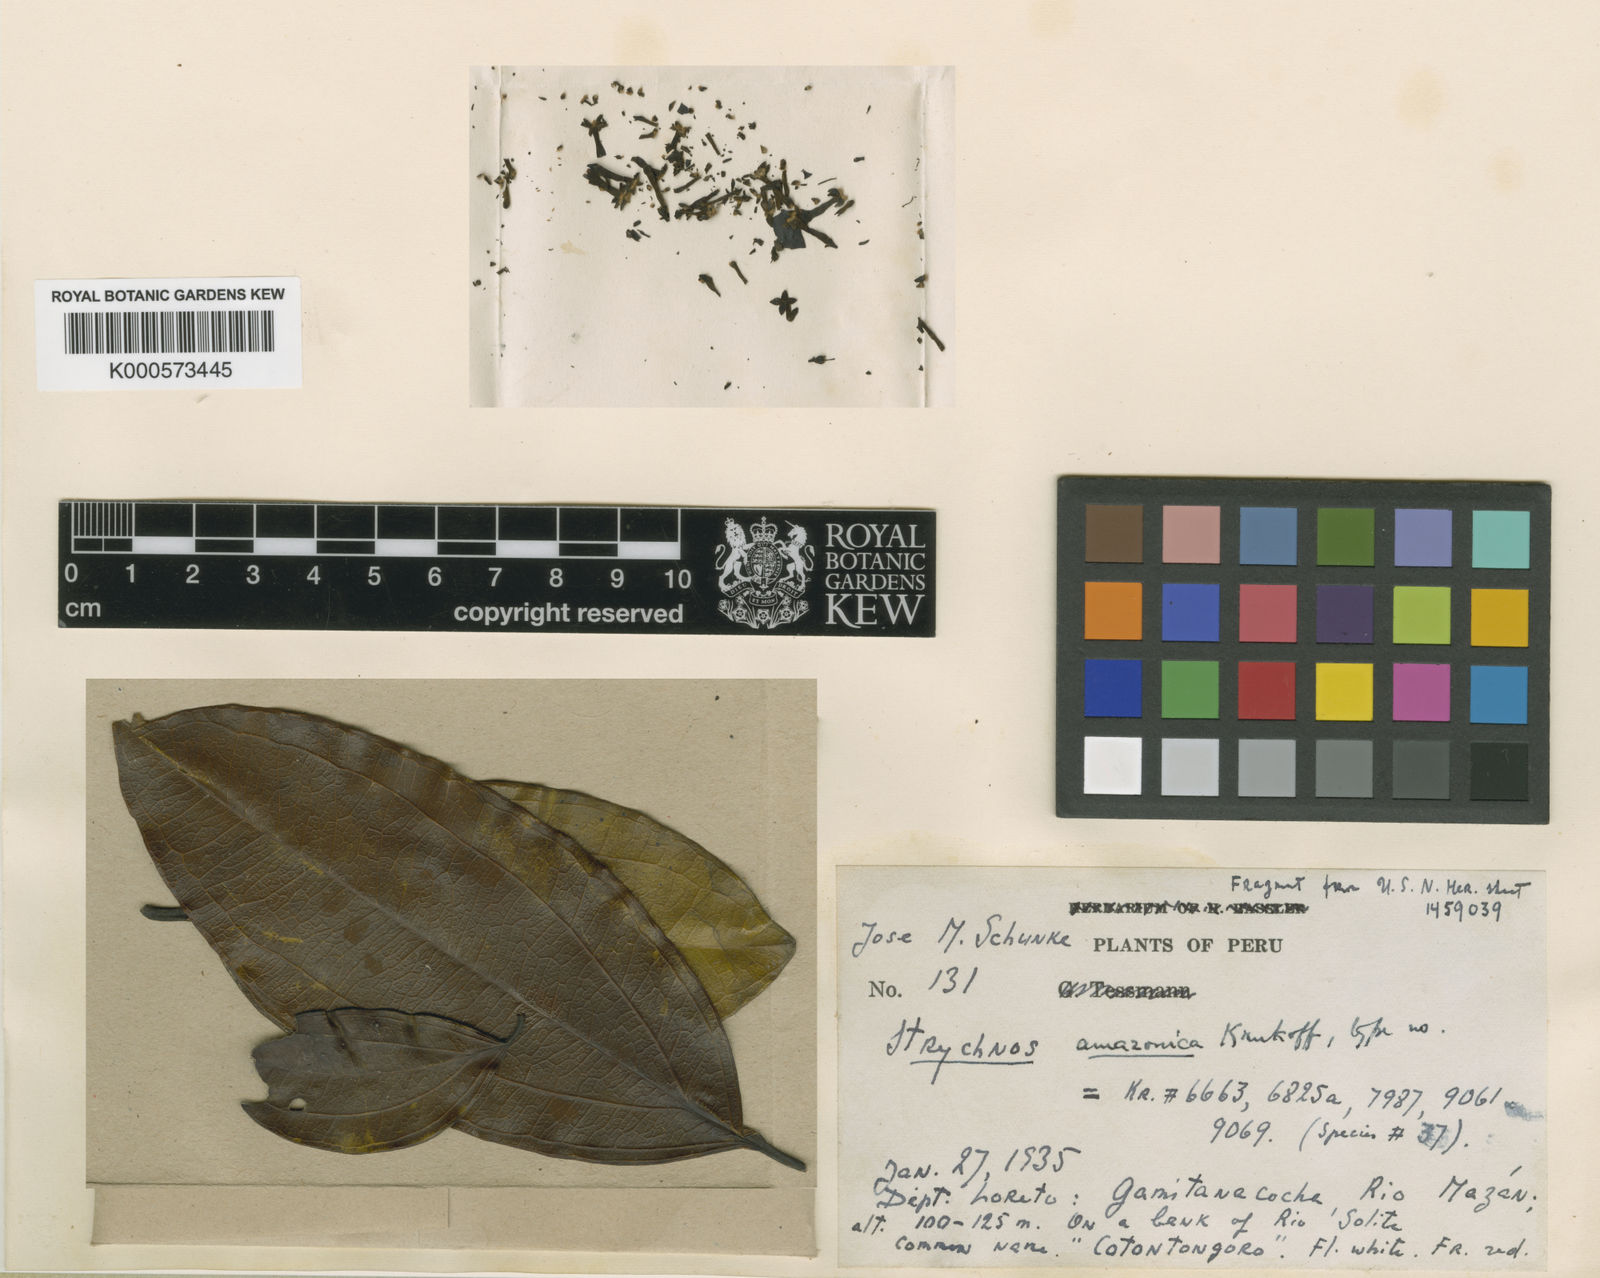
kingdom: Plantae
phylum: Tracheophyta
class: Magnoliopsida
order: Gentianales
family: Loganiaceae
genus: Strychnos
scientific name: Strychnos amazonica
